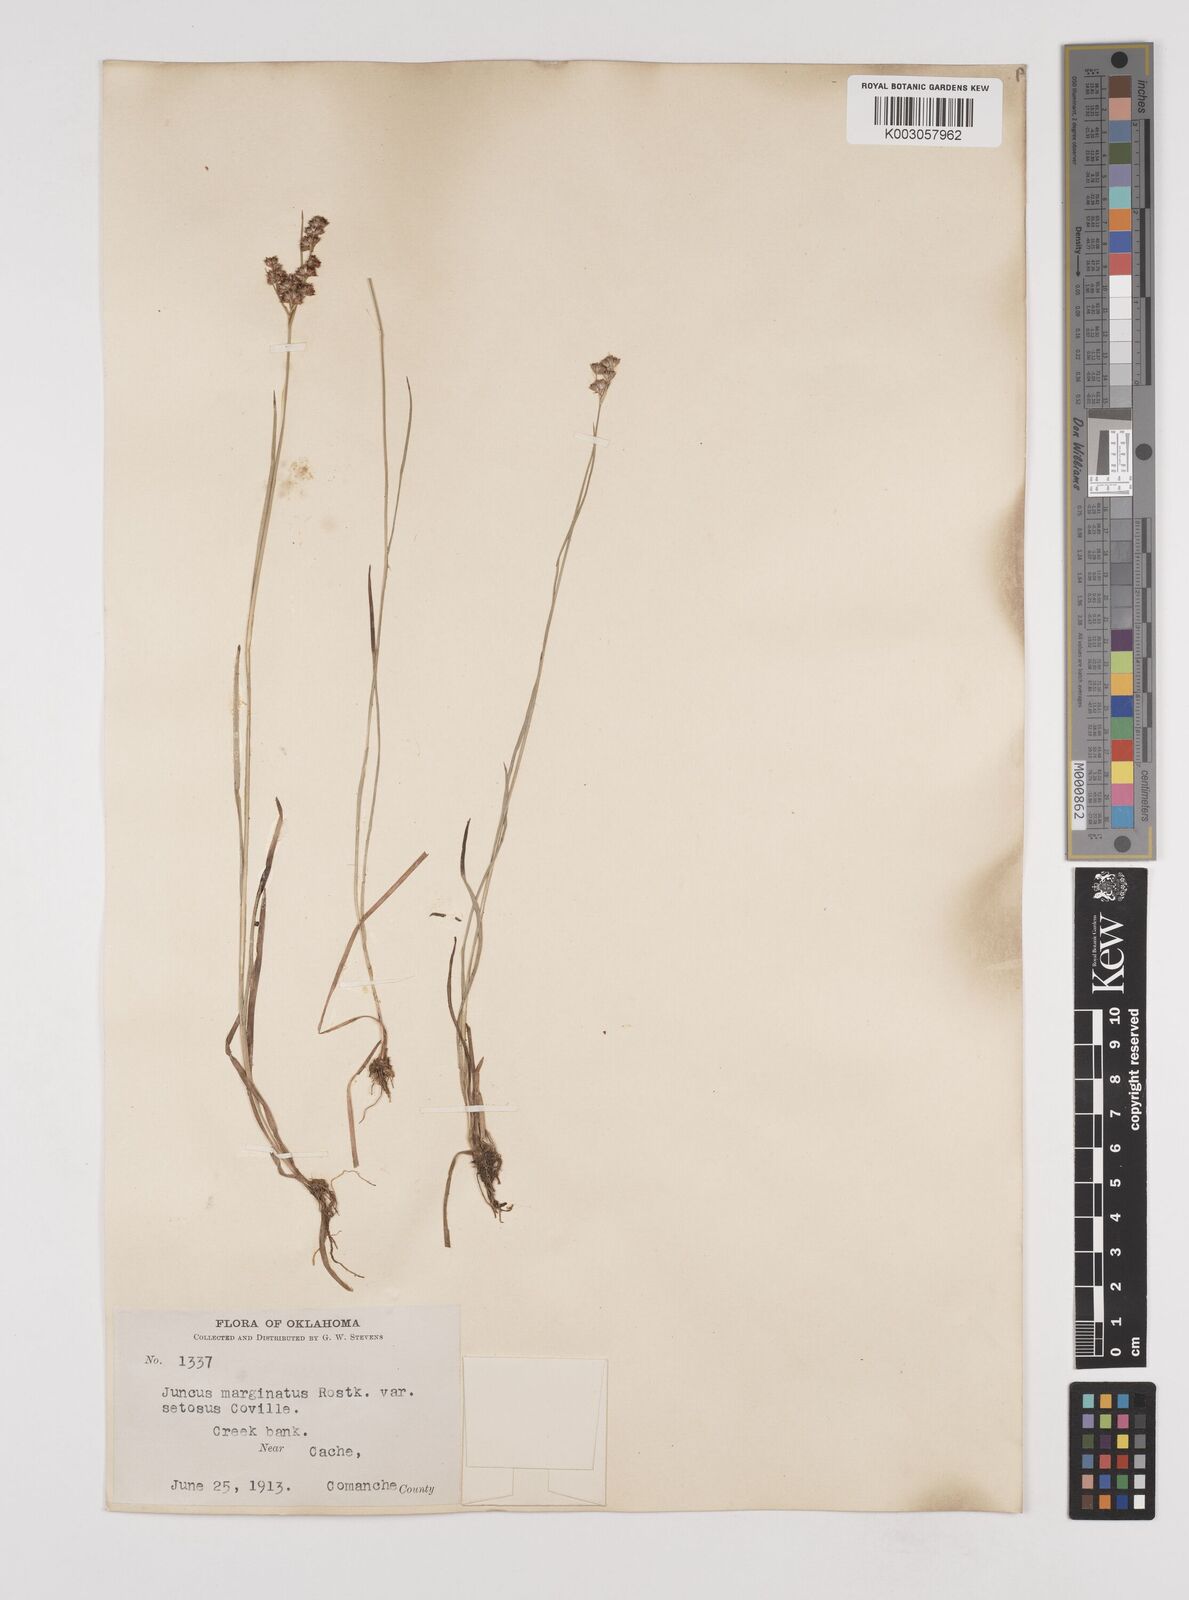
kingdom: Plantae
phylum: Tracheophyta
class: Liliopsida
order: Poales
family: Juncaceae
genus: Juncus
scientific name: Juncus marginatus
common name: Grass-leaf rush
